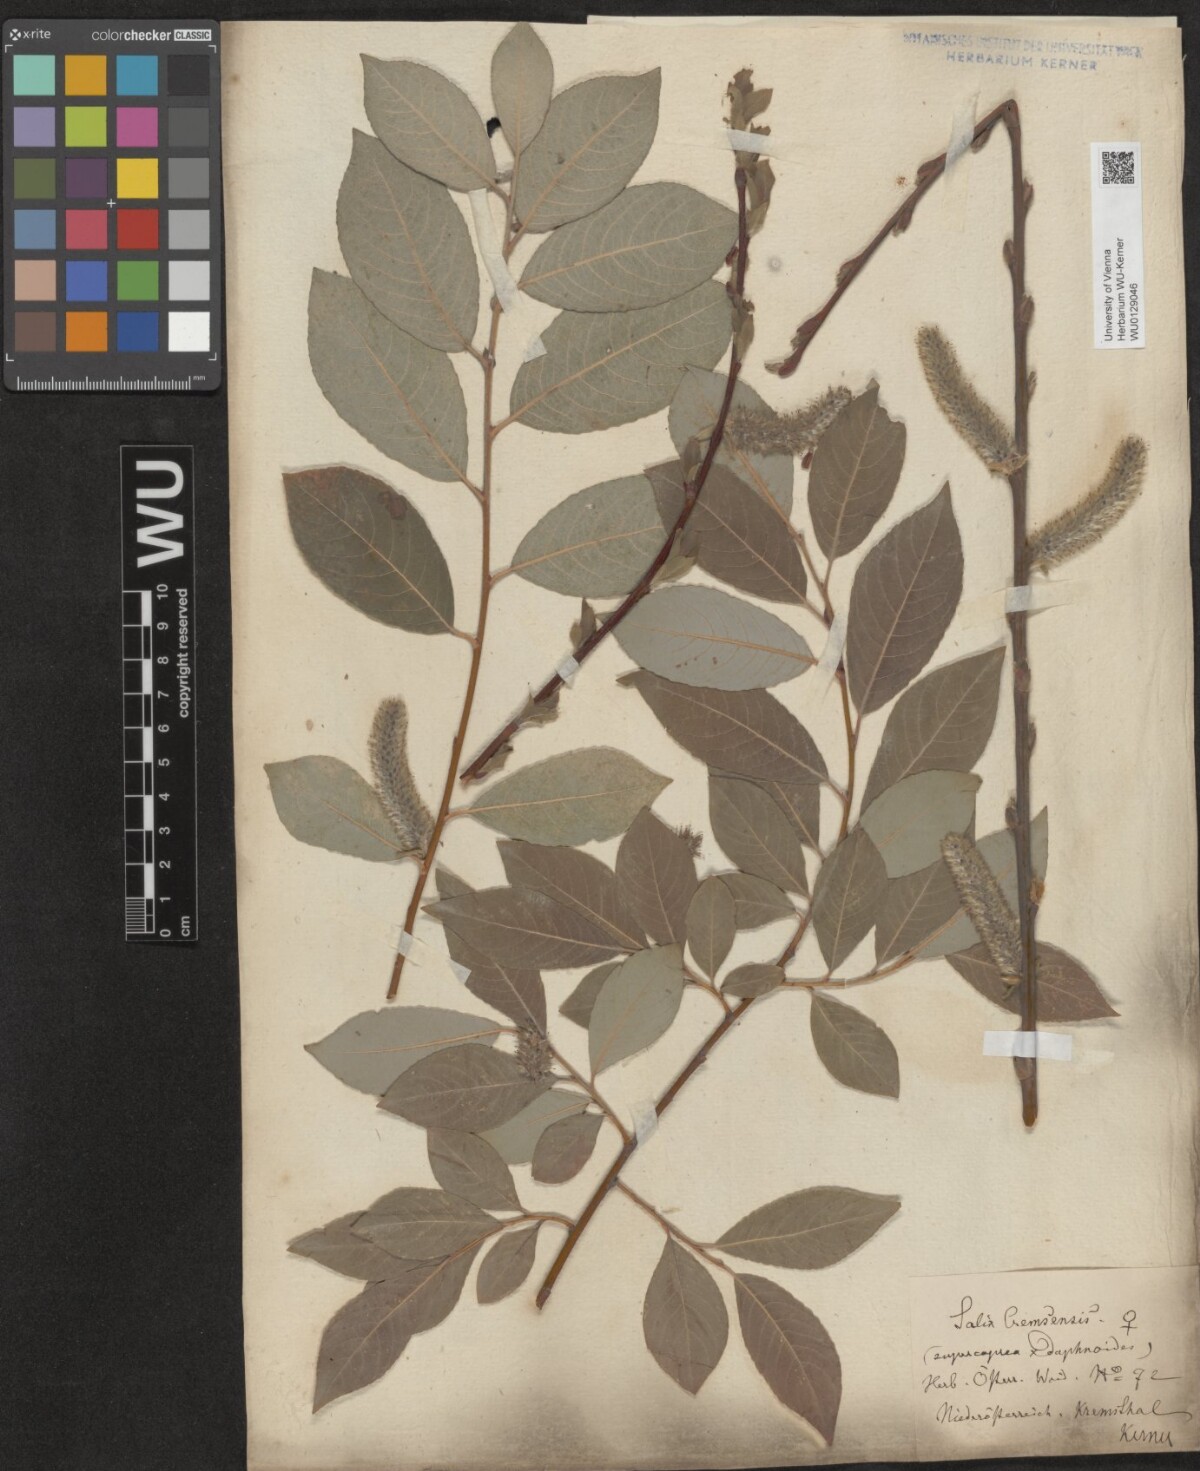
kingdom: Plantae
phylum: Tracheophyta
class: Magnoliopsida
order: Malpighiales
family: Salicaceae
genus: Salix
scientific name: Salix erdingeri
